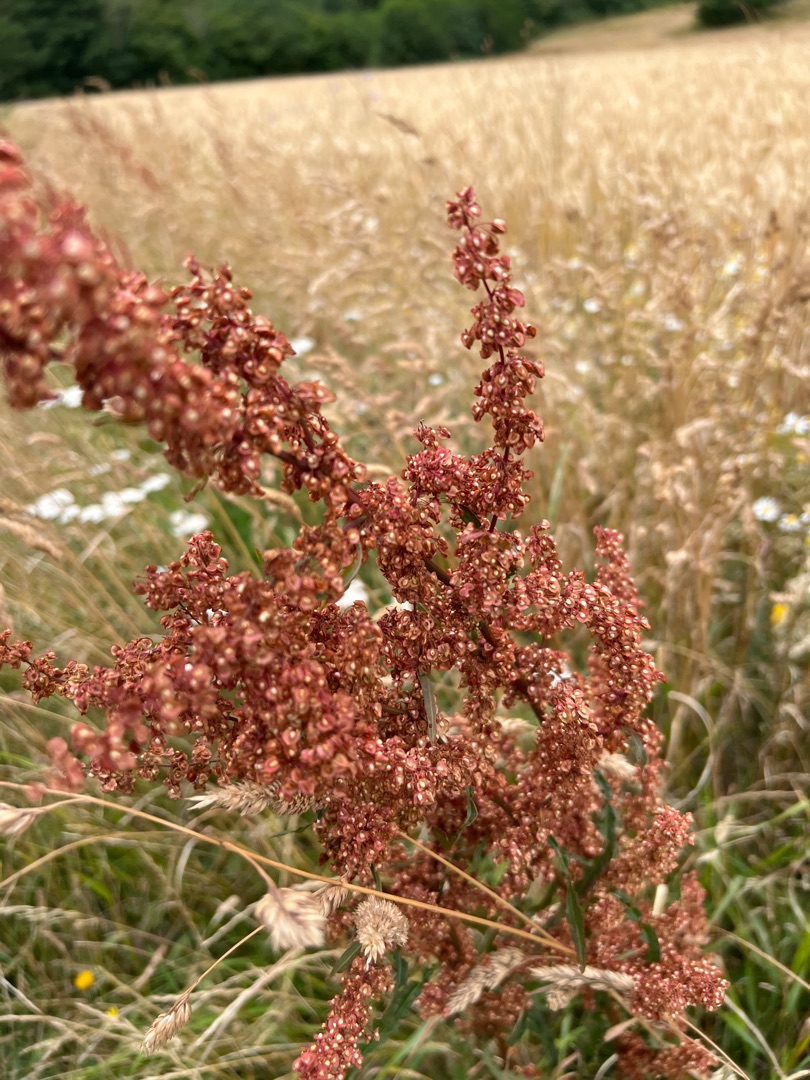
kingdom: Plantae
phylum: Tracheophyta
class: Magnoliopsida
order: Caryophyllales
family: Polygonaceae
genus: Rumex
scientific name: Rumex crispus
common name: Kruset skræppe
